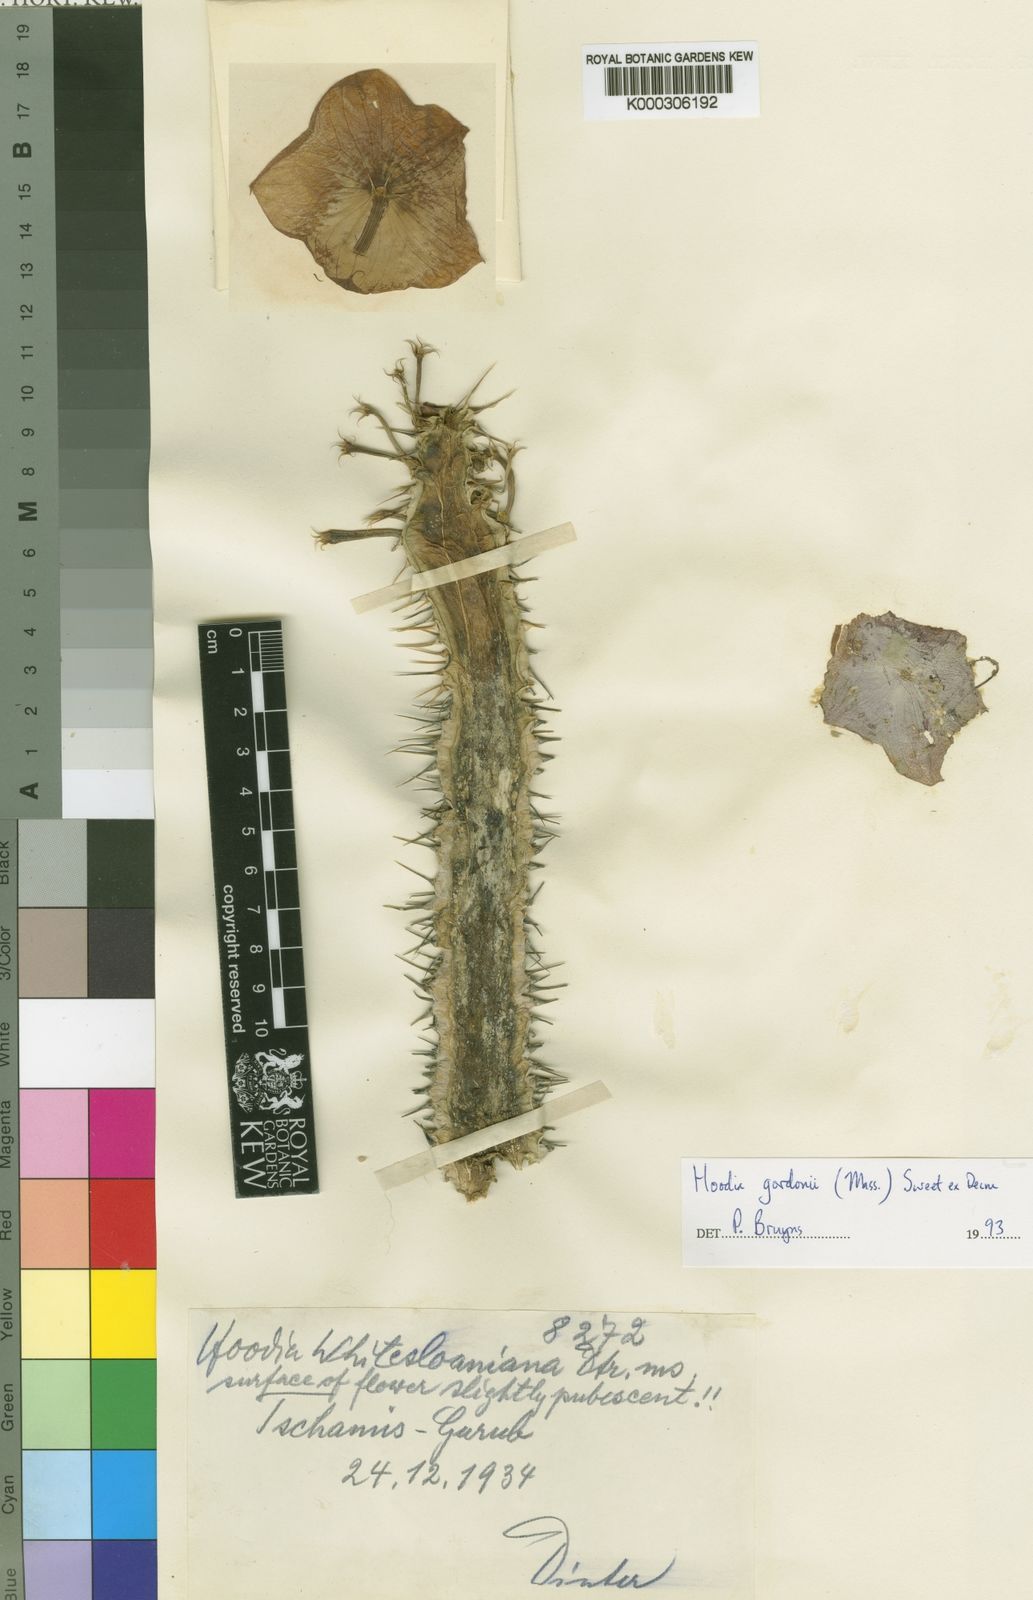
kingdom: Plantae
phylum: Tracheophyta
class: Magnoliopsida
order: Gentianales
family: Apocynaceae
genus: Ceropegia
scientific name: Ceropegia gordonii
